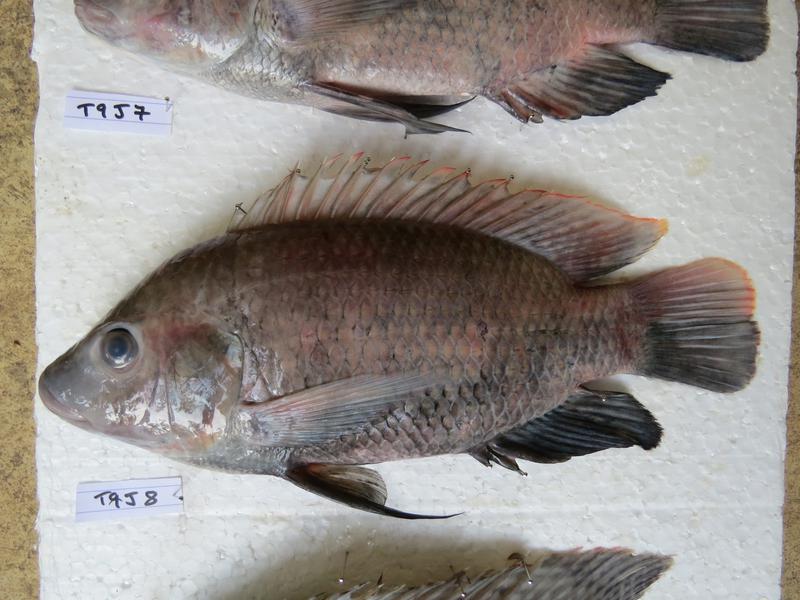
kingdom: Animalia
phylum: Chordata
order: Perciformes
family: Cichlidae
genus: Oreochromis
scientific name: Oreochromis urolepis
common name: Wami tilapia
